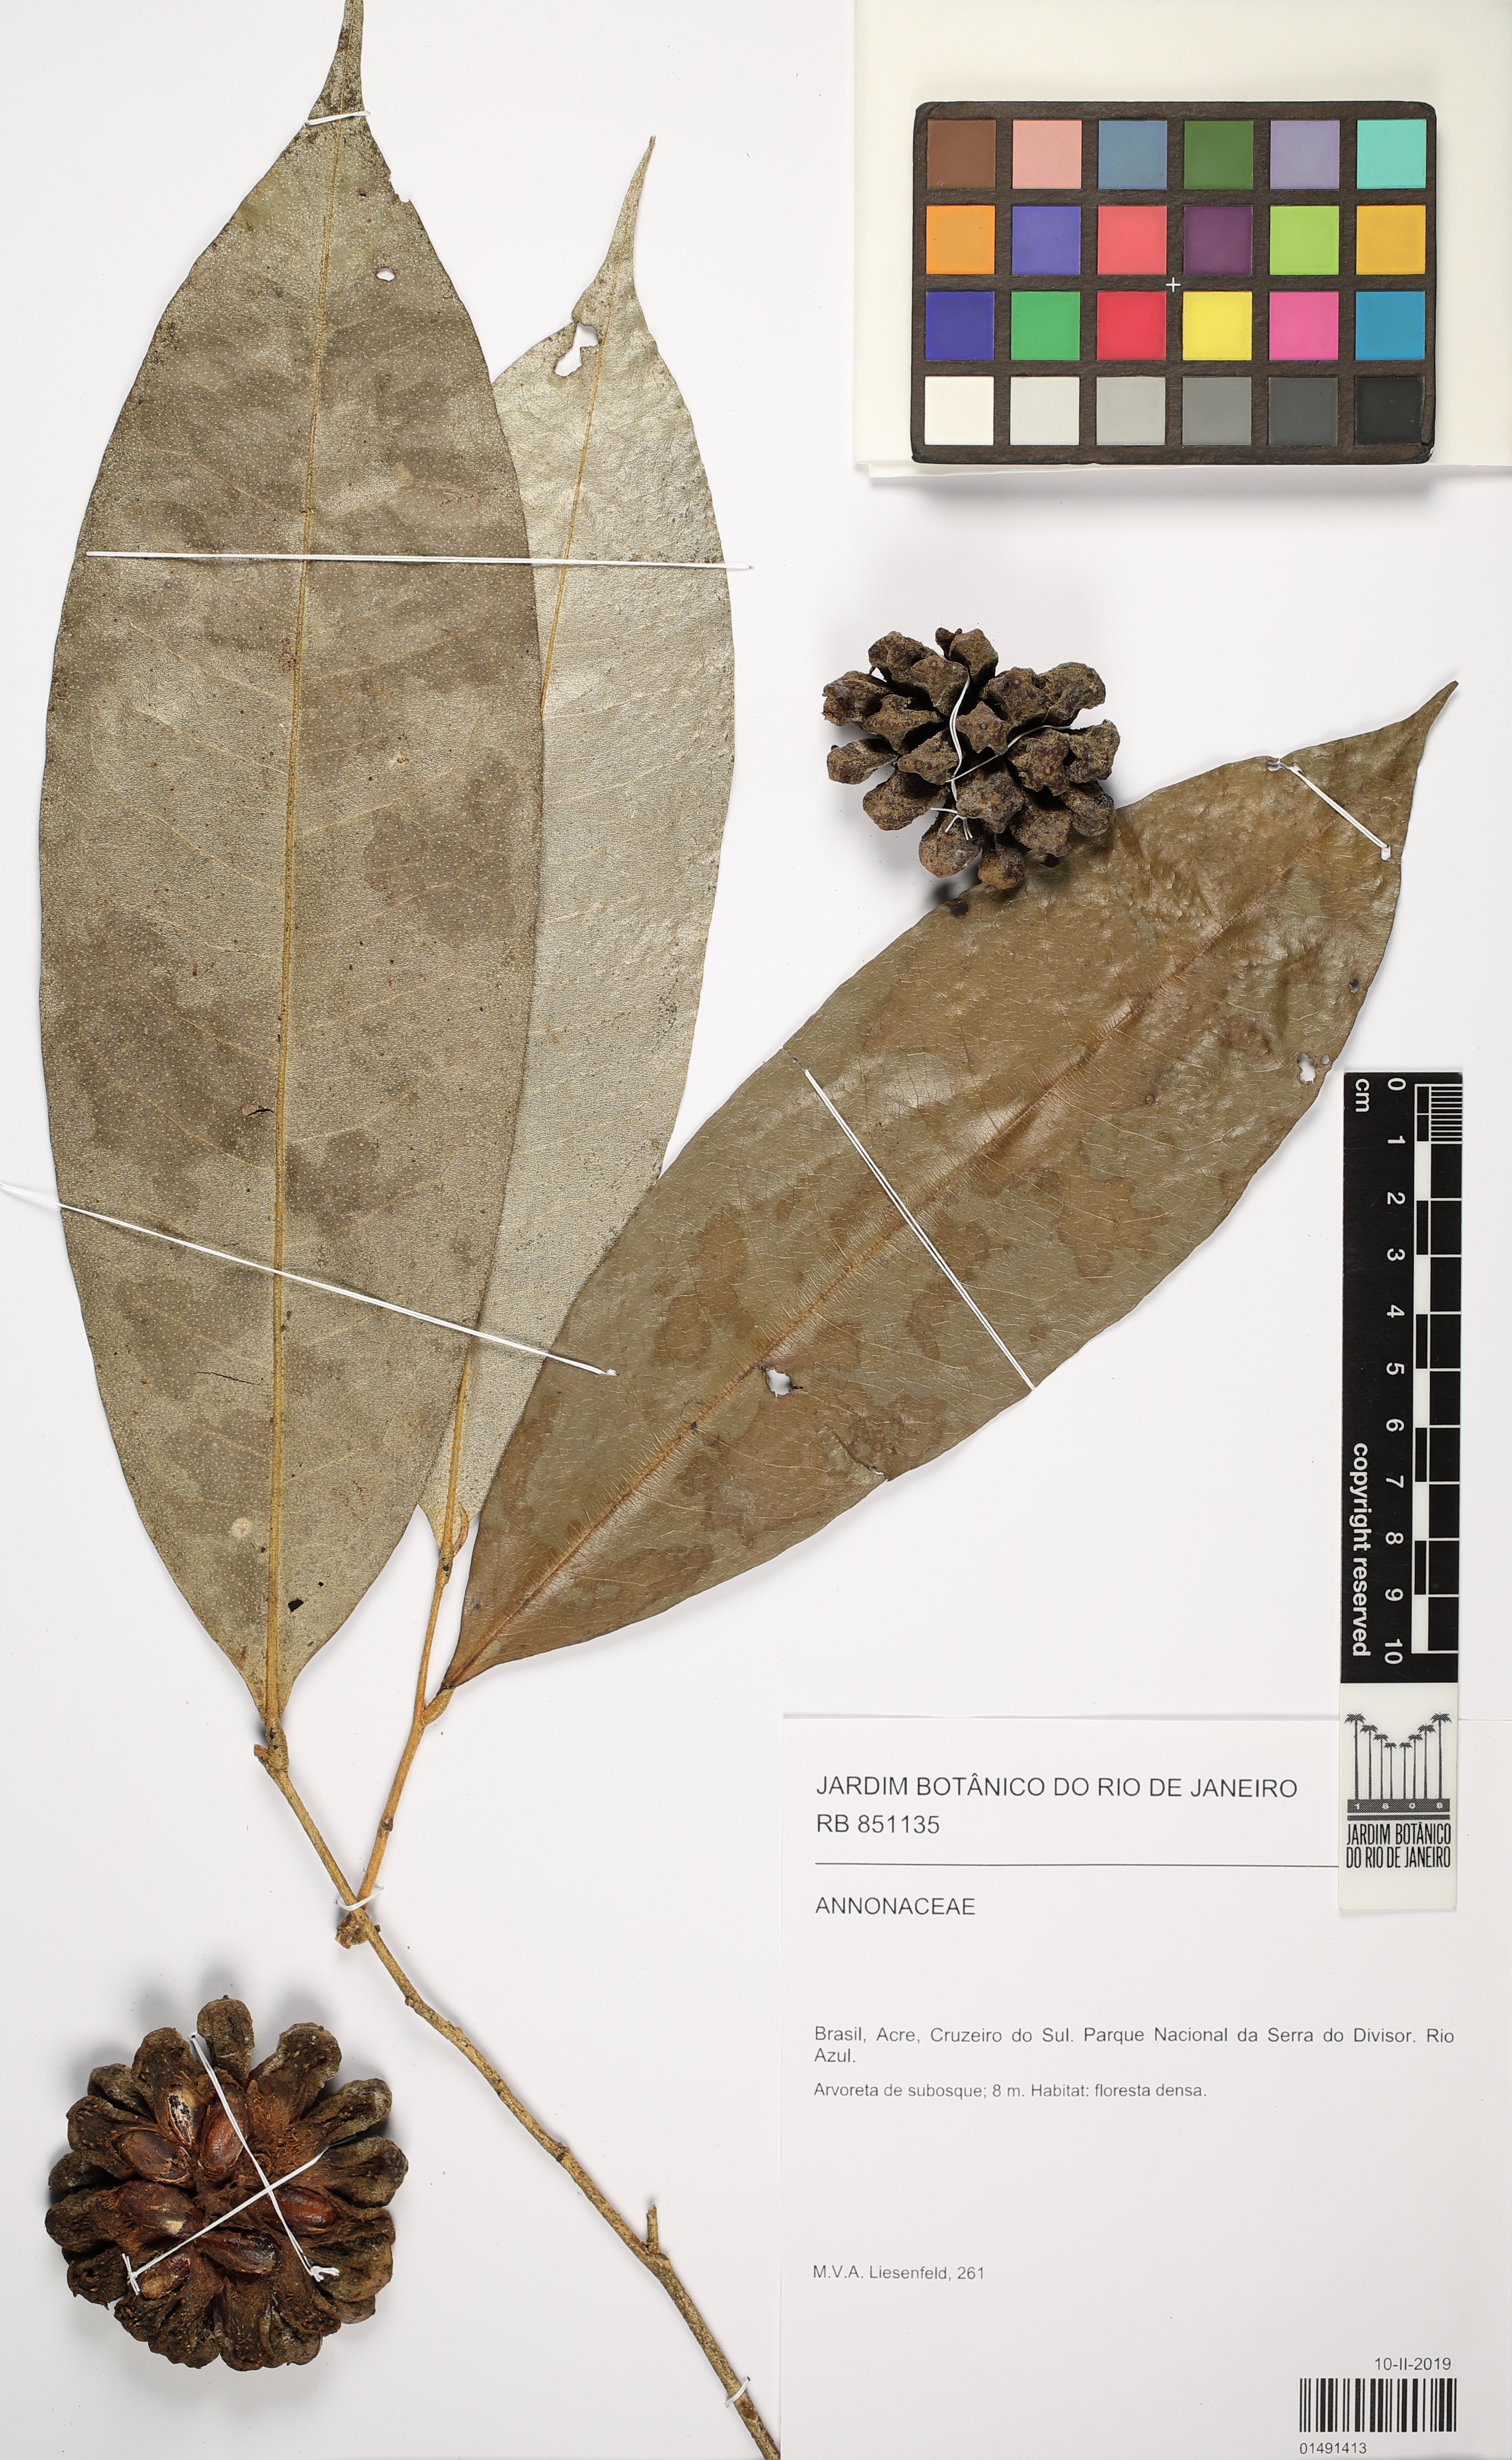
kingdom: Plantae
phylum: Tracheophyta
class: Magnoliopsida
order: Magnoliales
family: Annonaceae
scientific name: Annonaceae
